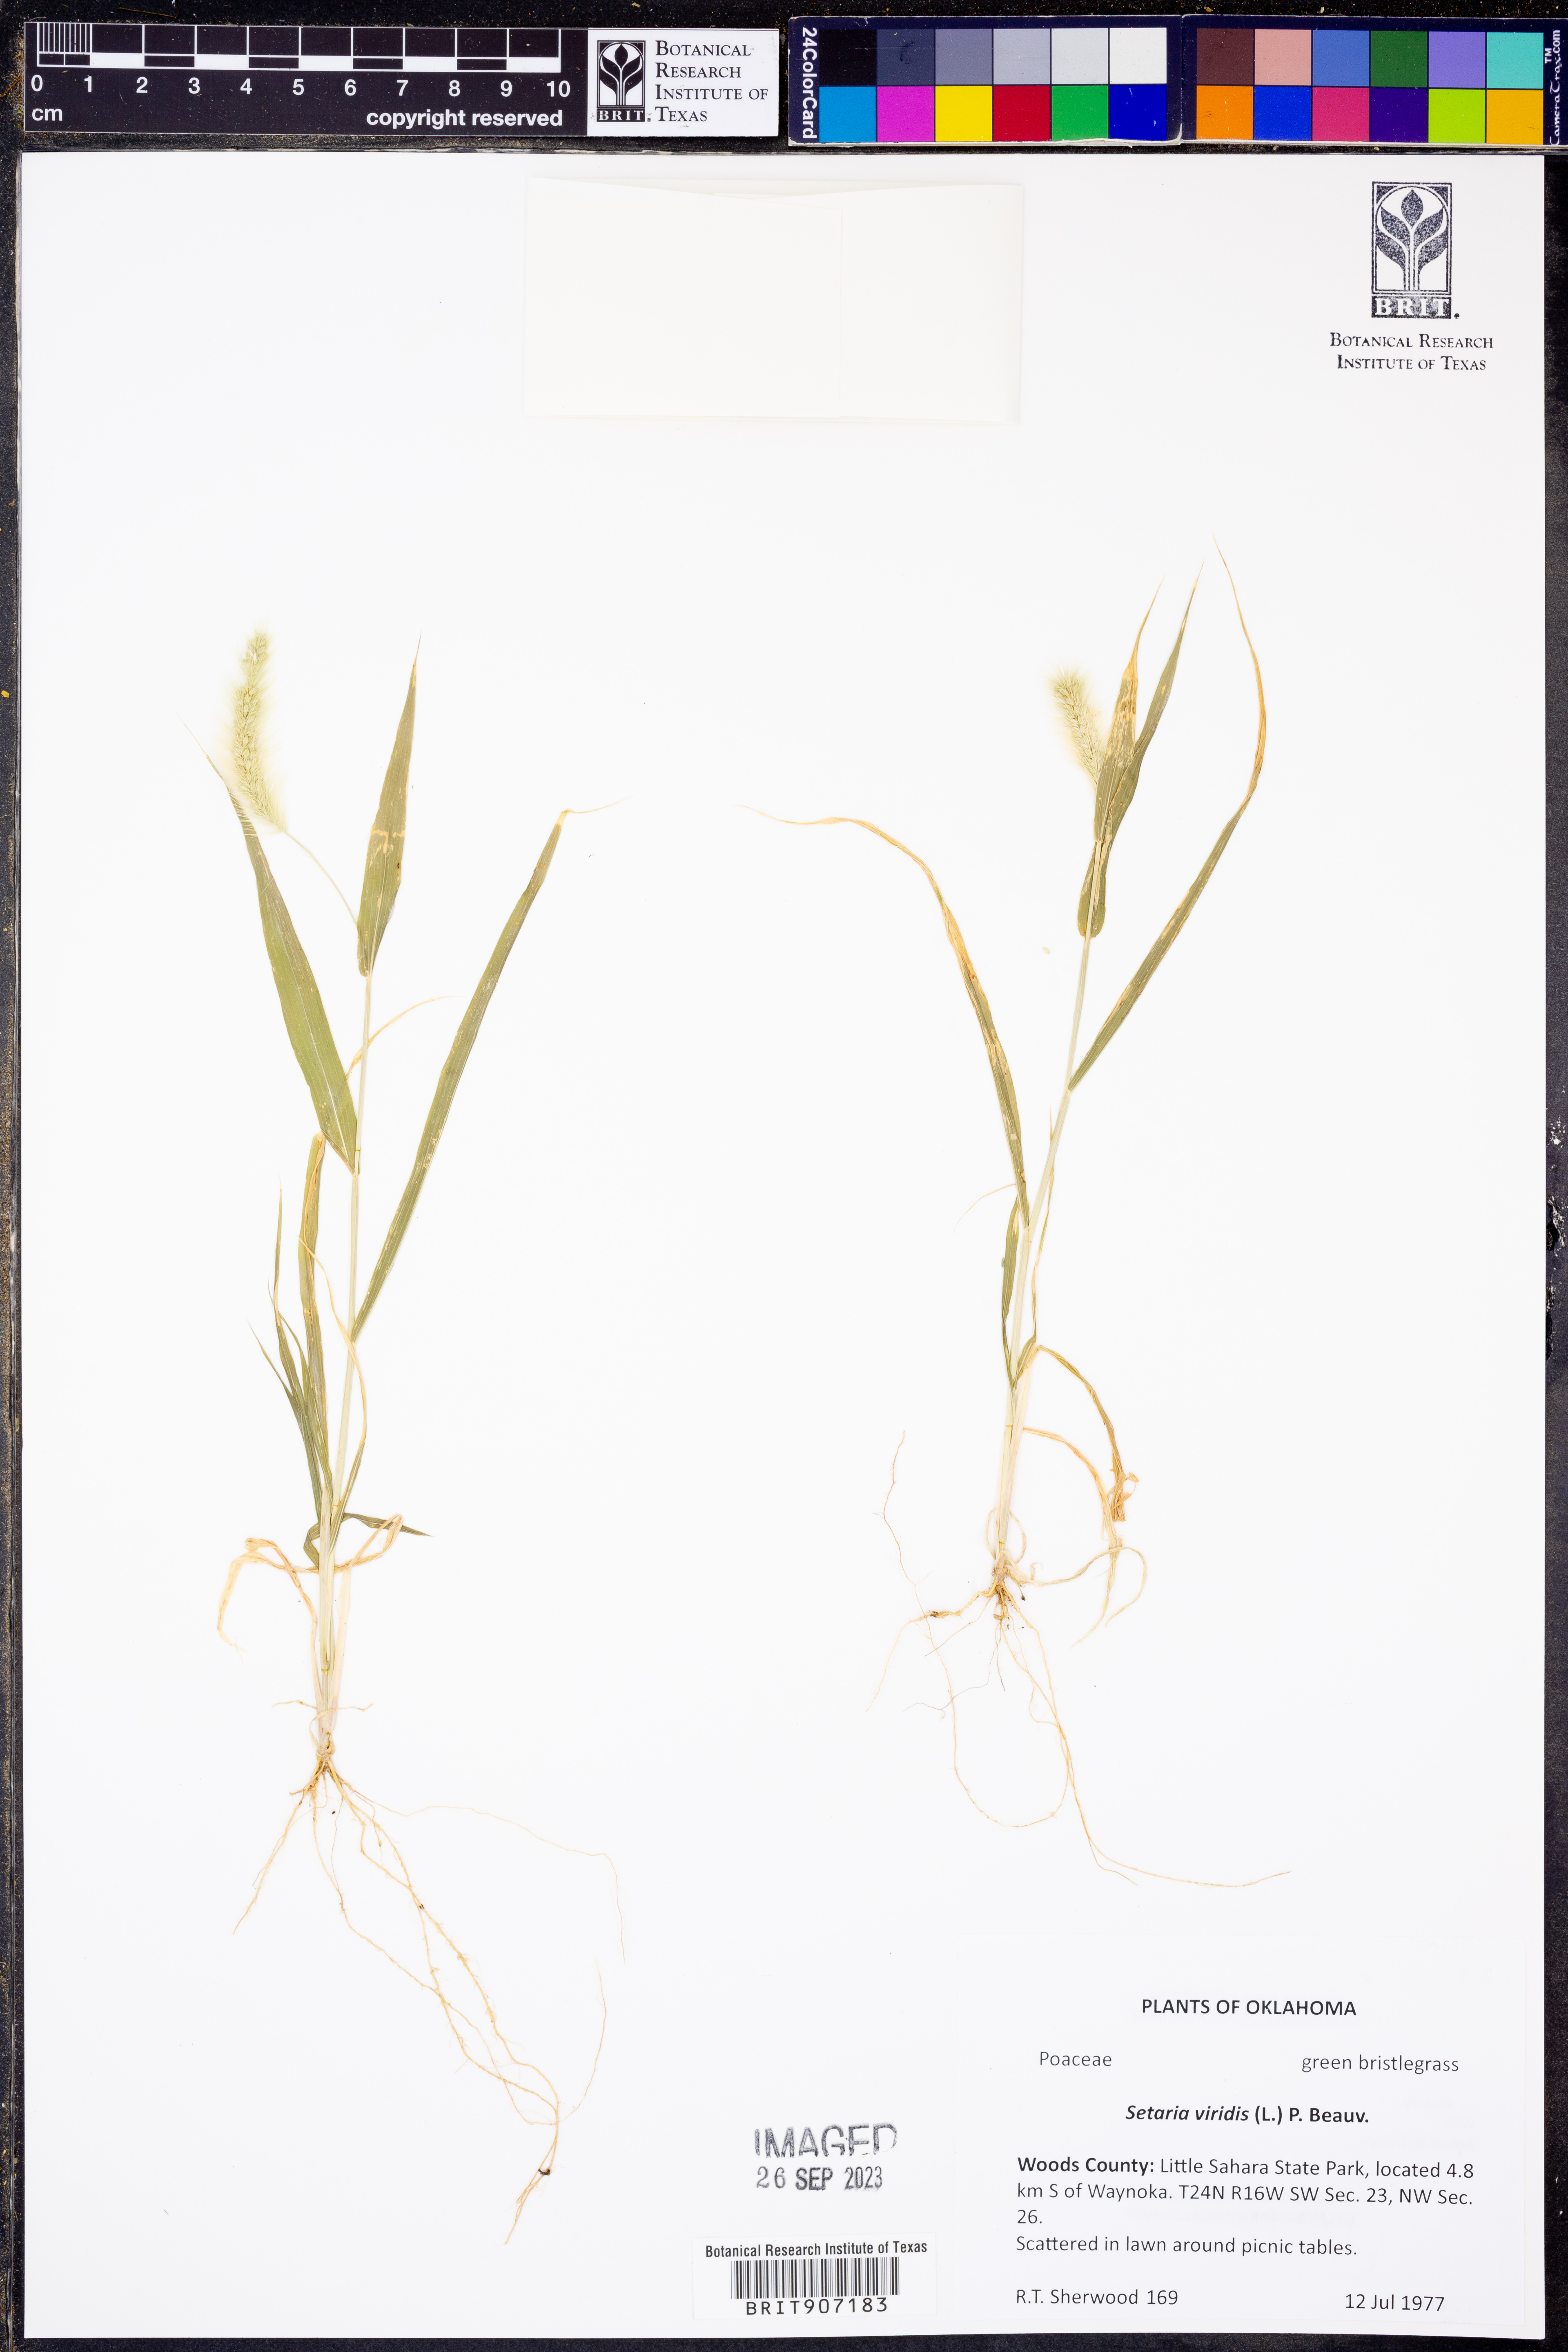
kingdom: Plantae
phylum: Tracheophyta
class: Liliopsida
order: Poales
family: Poaceae
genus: Setaria
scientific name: Setaria viridis
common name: Green bristlegrass
